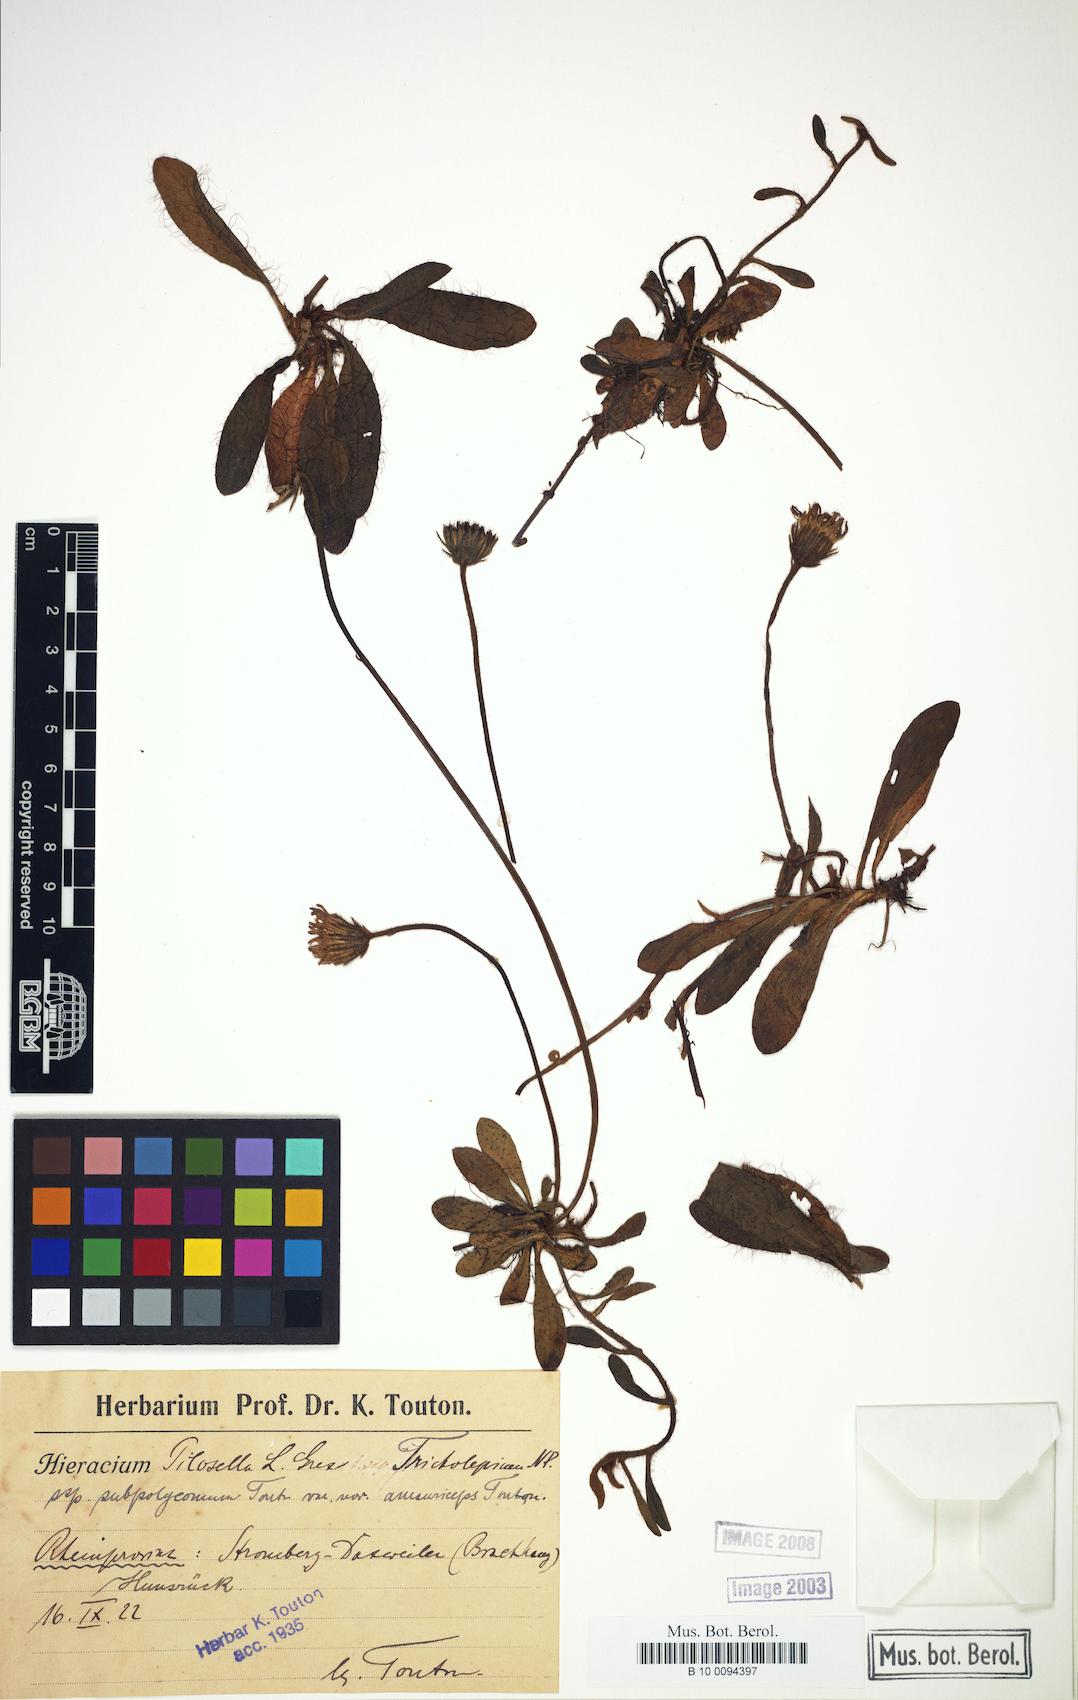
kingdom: Plantae
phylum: Tracheophyta
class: Magnoliopsida
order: Asterales
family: Asteraceae
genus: Pilosella
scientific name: Pilosella officinarum
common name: Mouse-ear hawkweed
